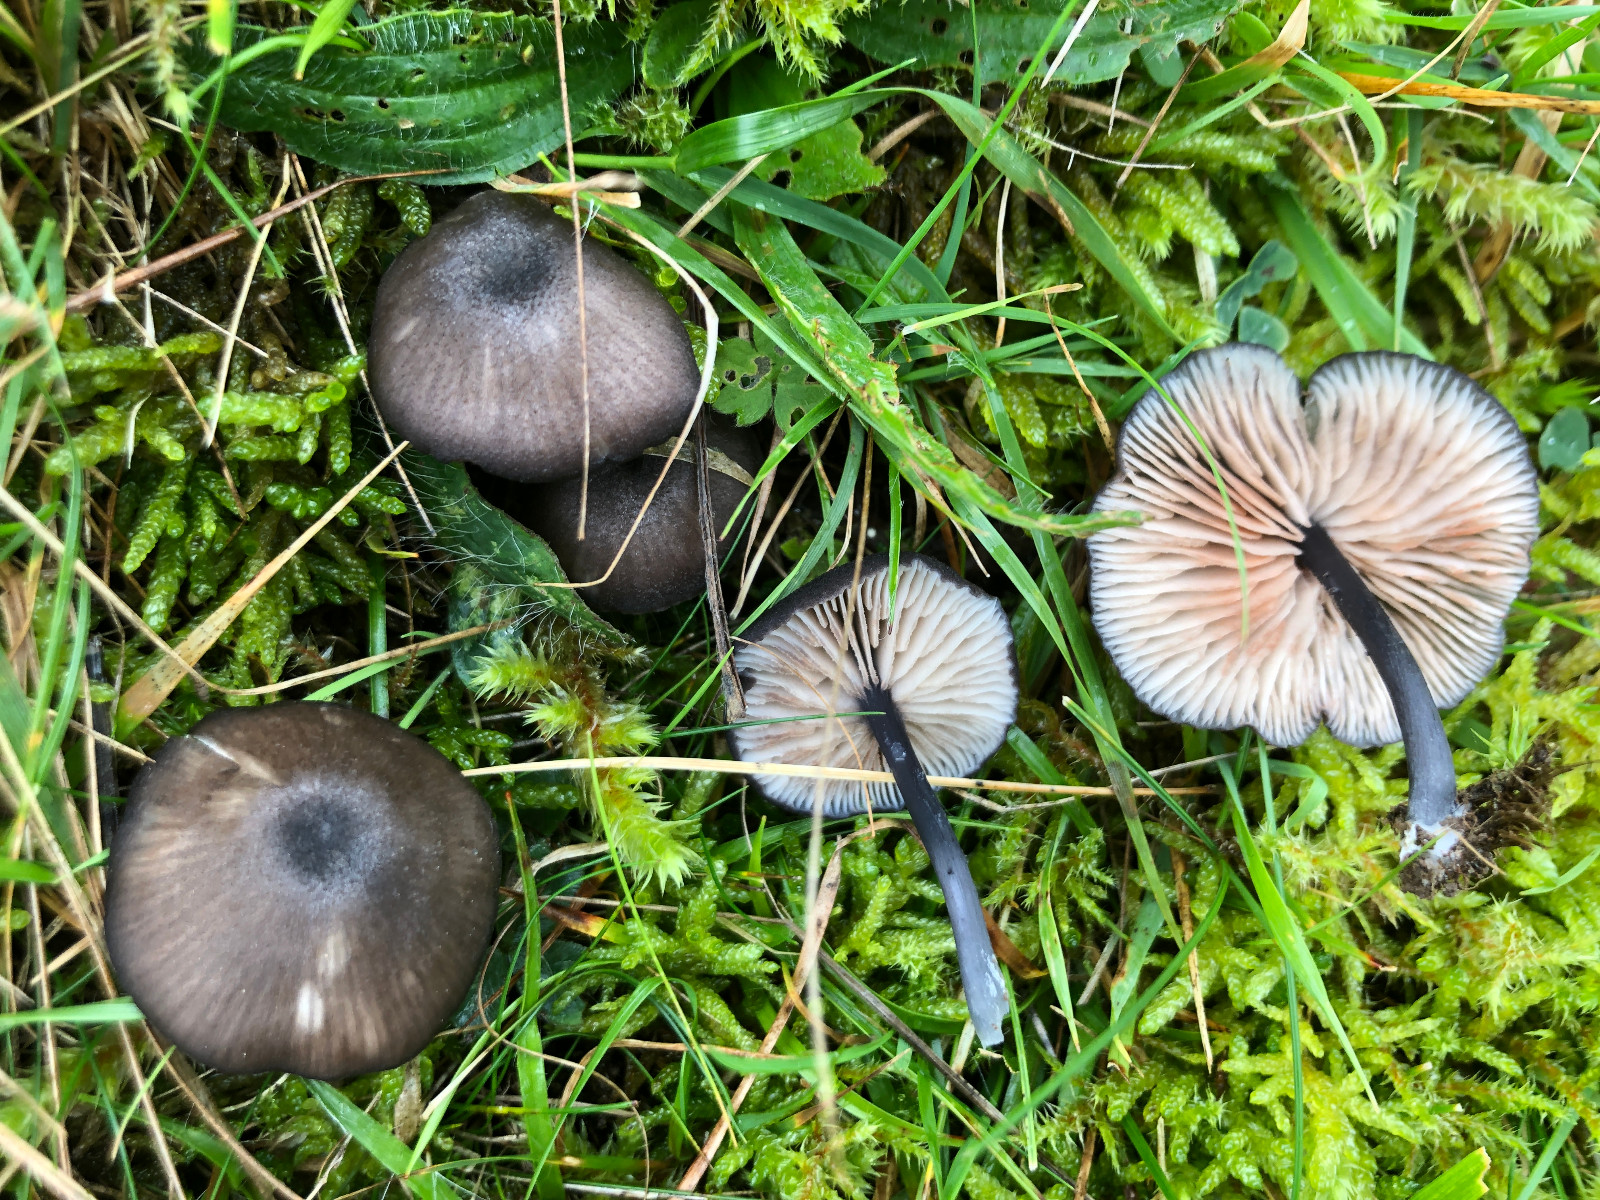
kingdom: Fungi
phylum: Basidiomycota
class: Agaricomycetes
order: Agaricales
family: Entolomataceae
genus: Entoloma
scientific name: Entoloma atrocoeruleum
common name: sortblå rødblad
